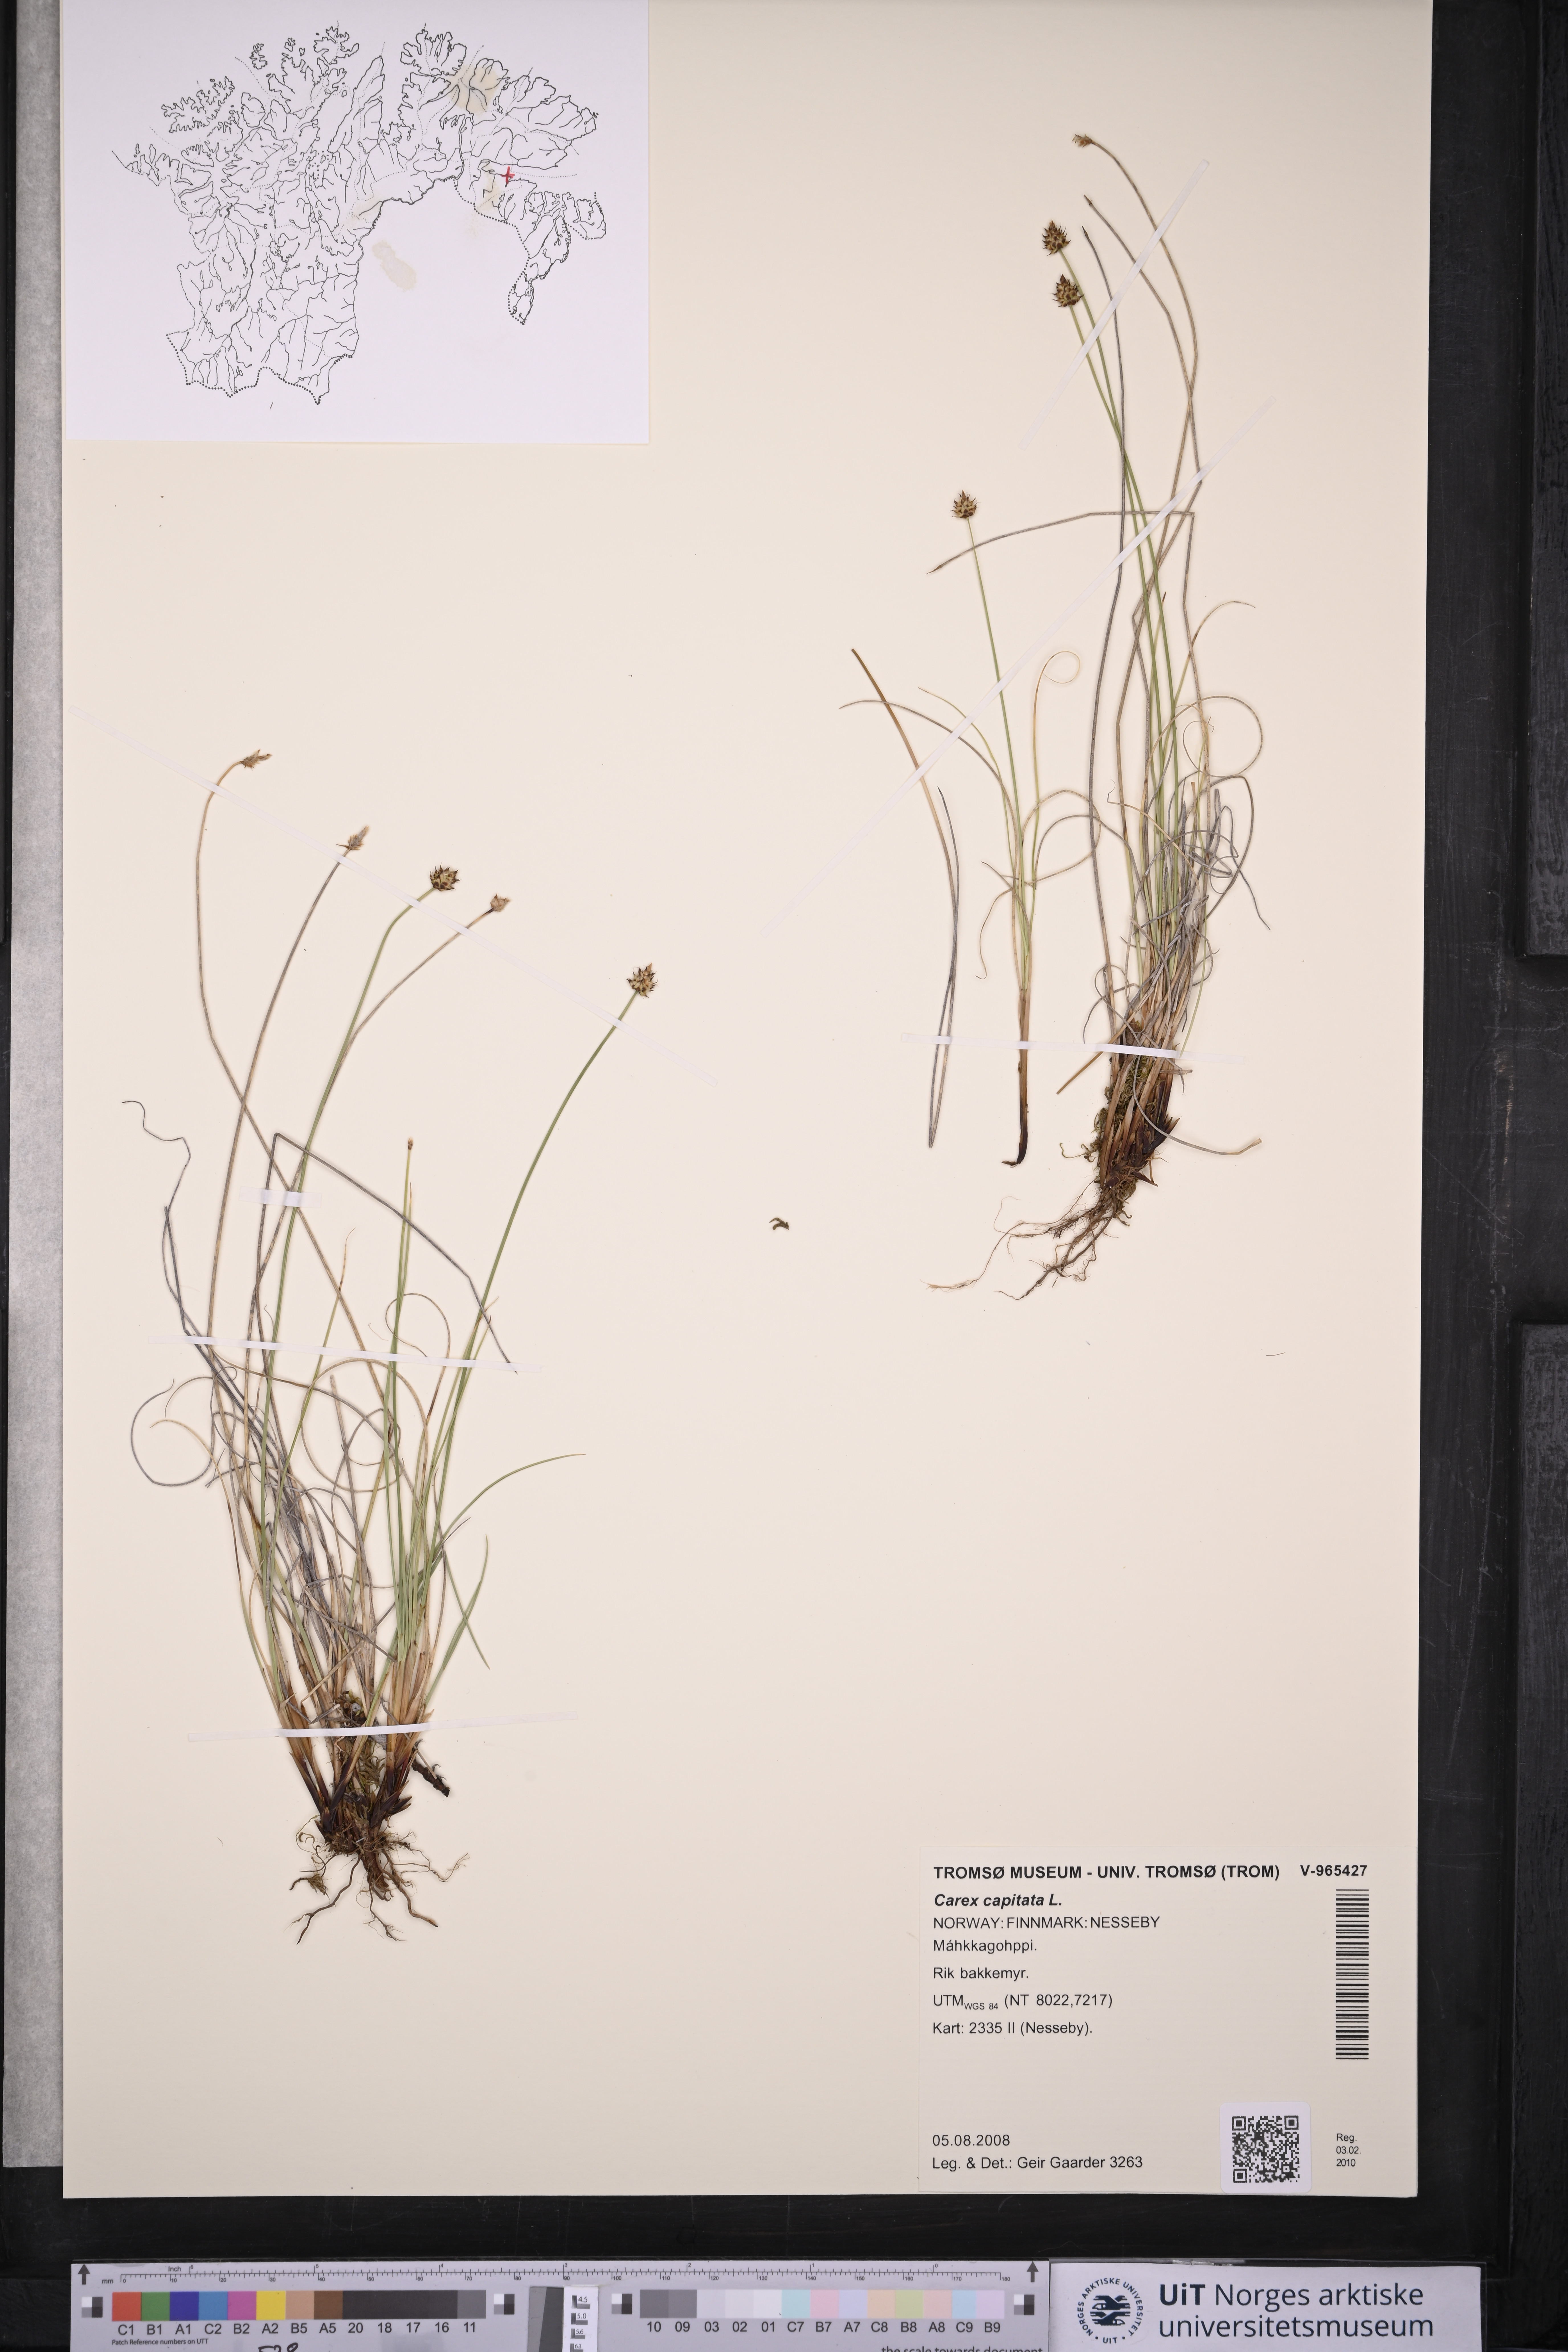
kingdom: Plantae
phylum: Tracheophyta
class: Liliopsida
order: Poales
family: Cyperaceae
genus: Carex
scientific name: Carex capitata
